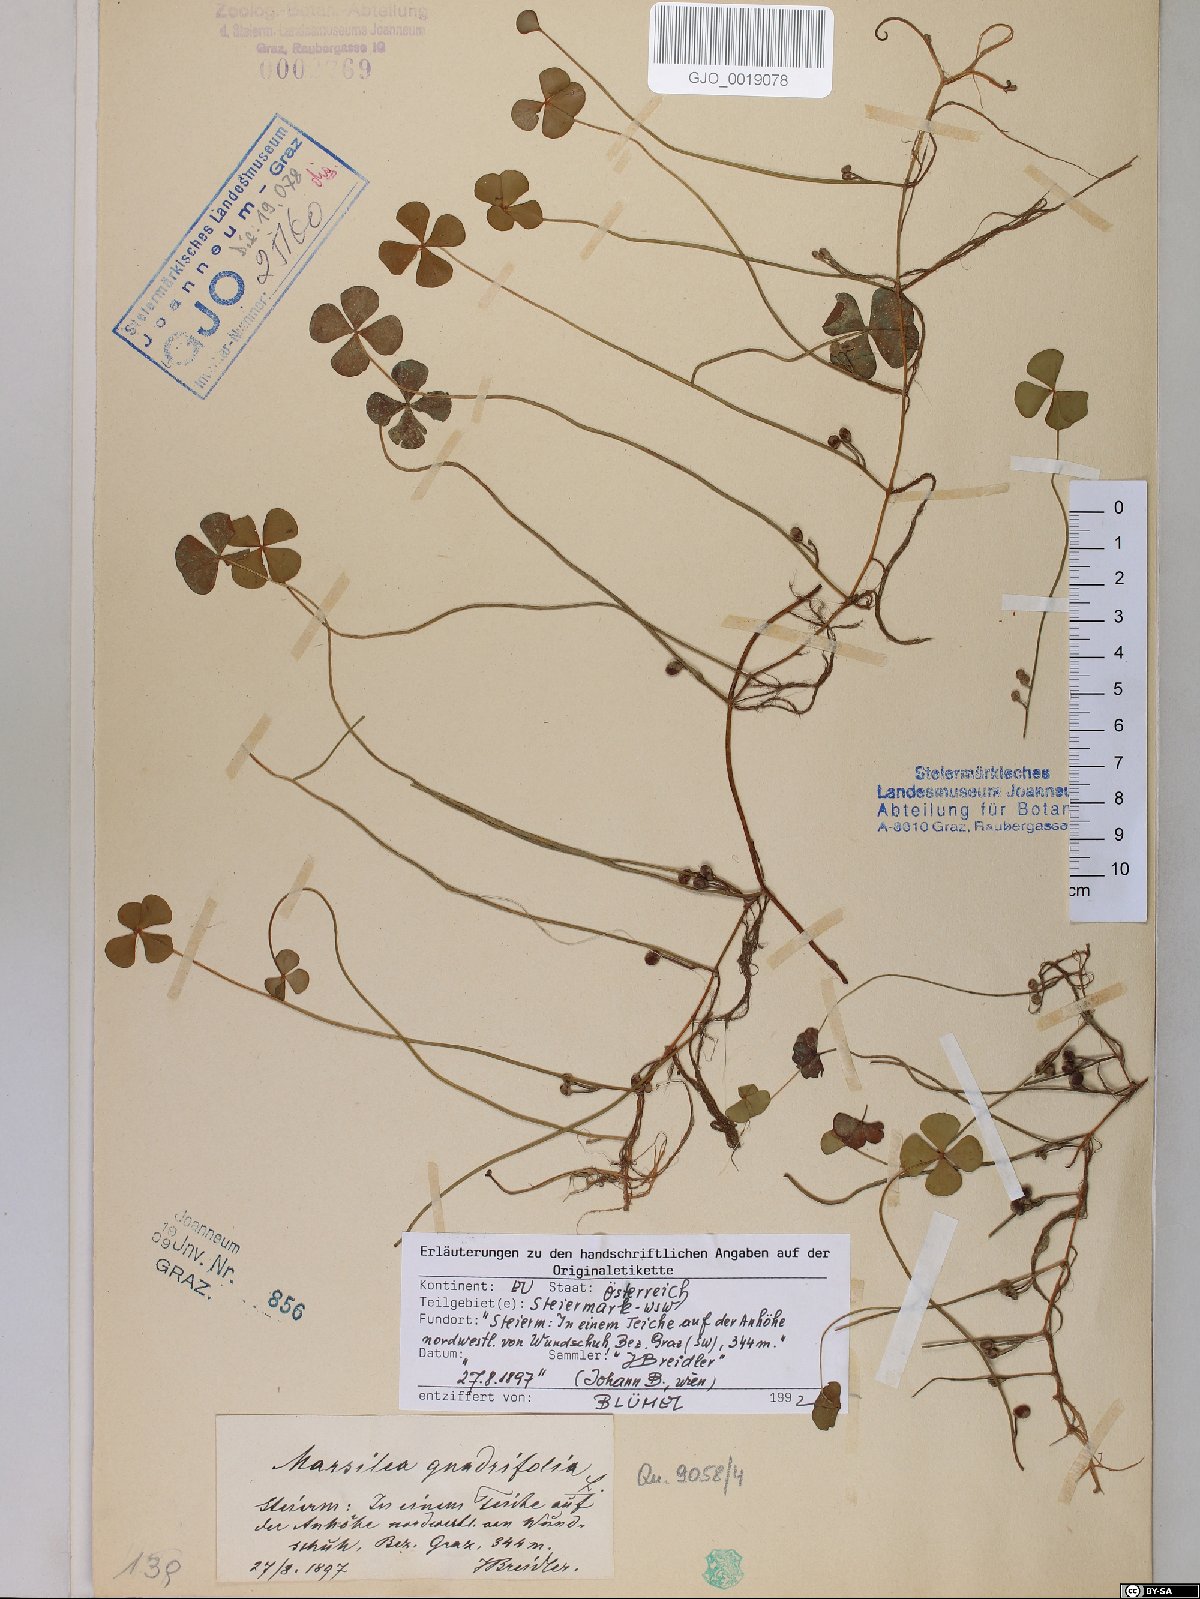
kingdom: Plantae
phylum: Tracheophyta
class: Polypodiopsida
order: Salviniales
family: Marsileaceae
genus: Marsilea
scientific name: Marsilea quadrifolia
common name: Water shamrock
